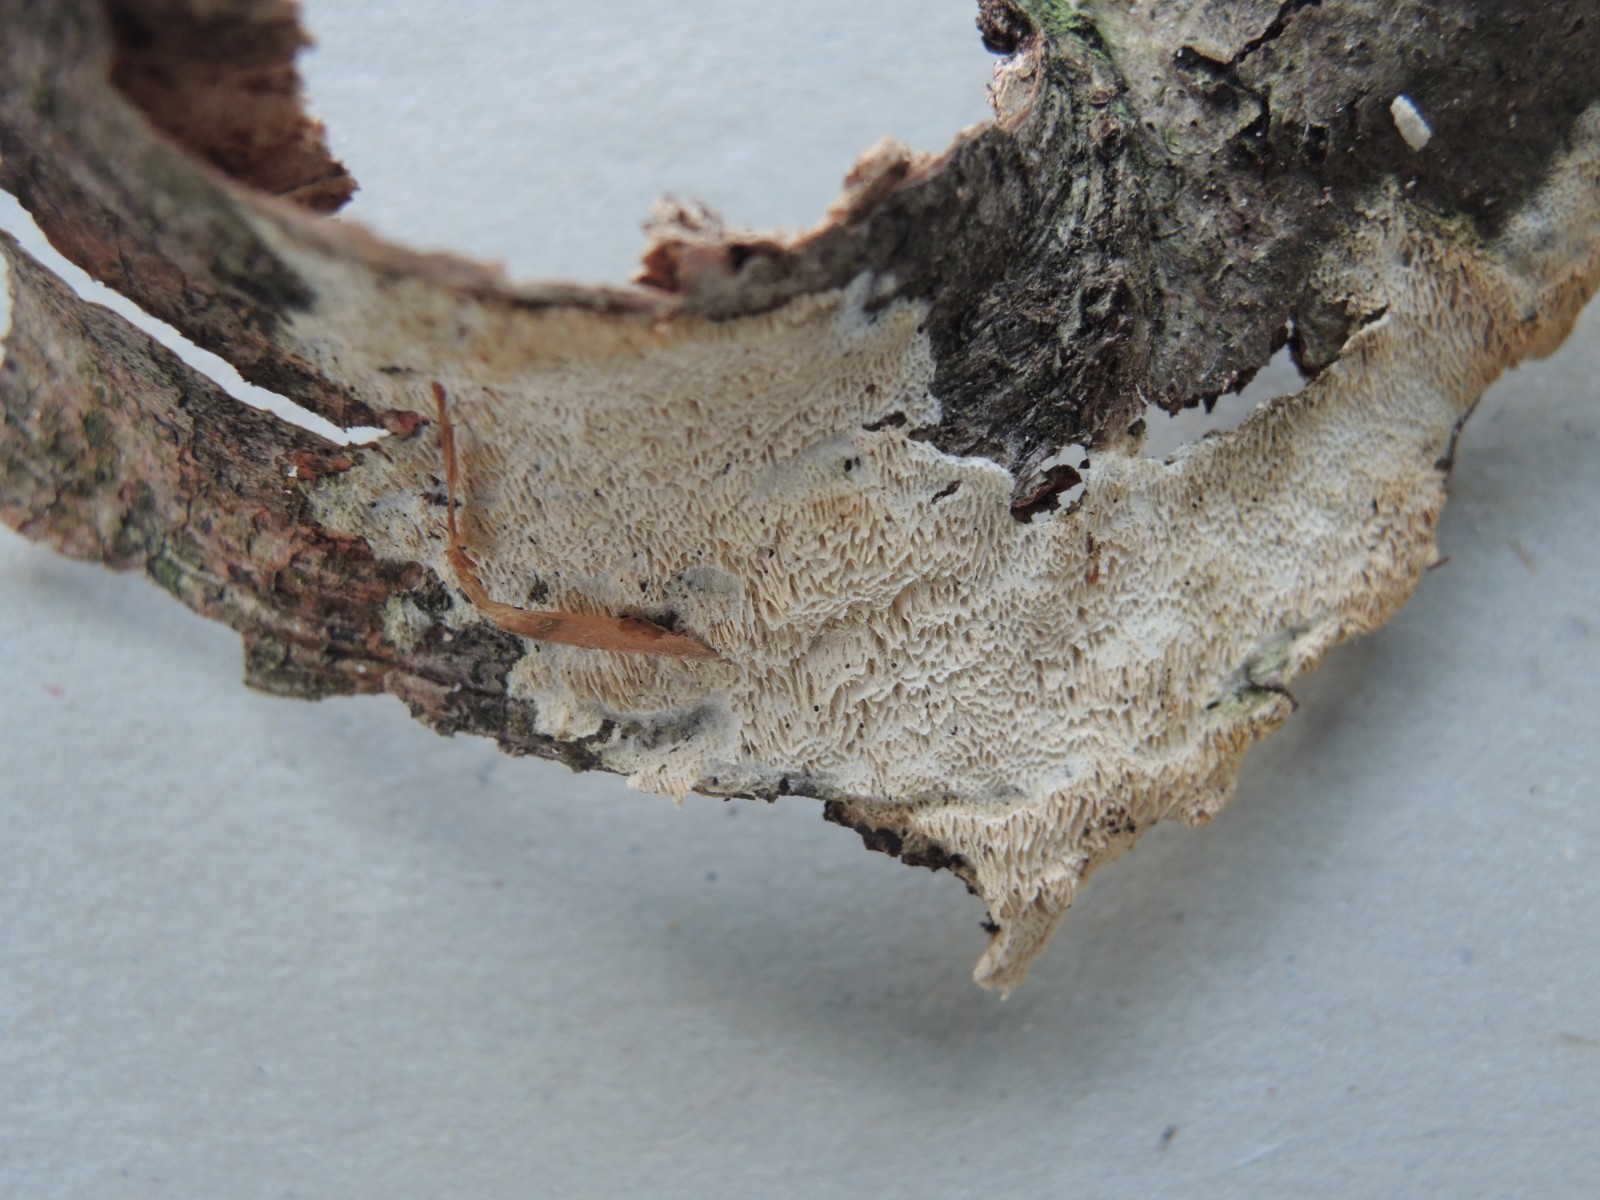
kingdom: Fungi
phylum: Basidiomycota
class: Agaricomycetes
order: Hymenochaetales
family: Schizoporaceae
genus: Xylodon
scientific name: Xylodon subtropicus
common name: labyrint-tandsvamp
